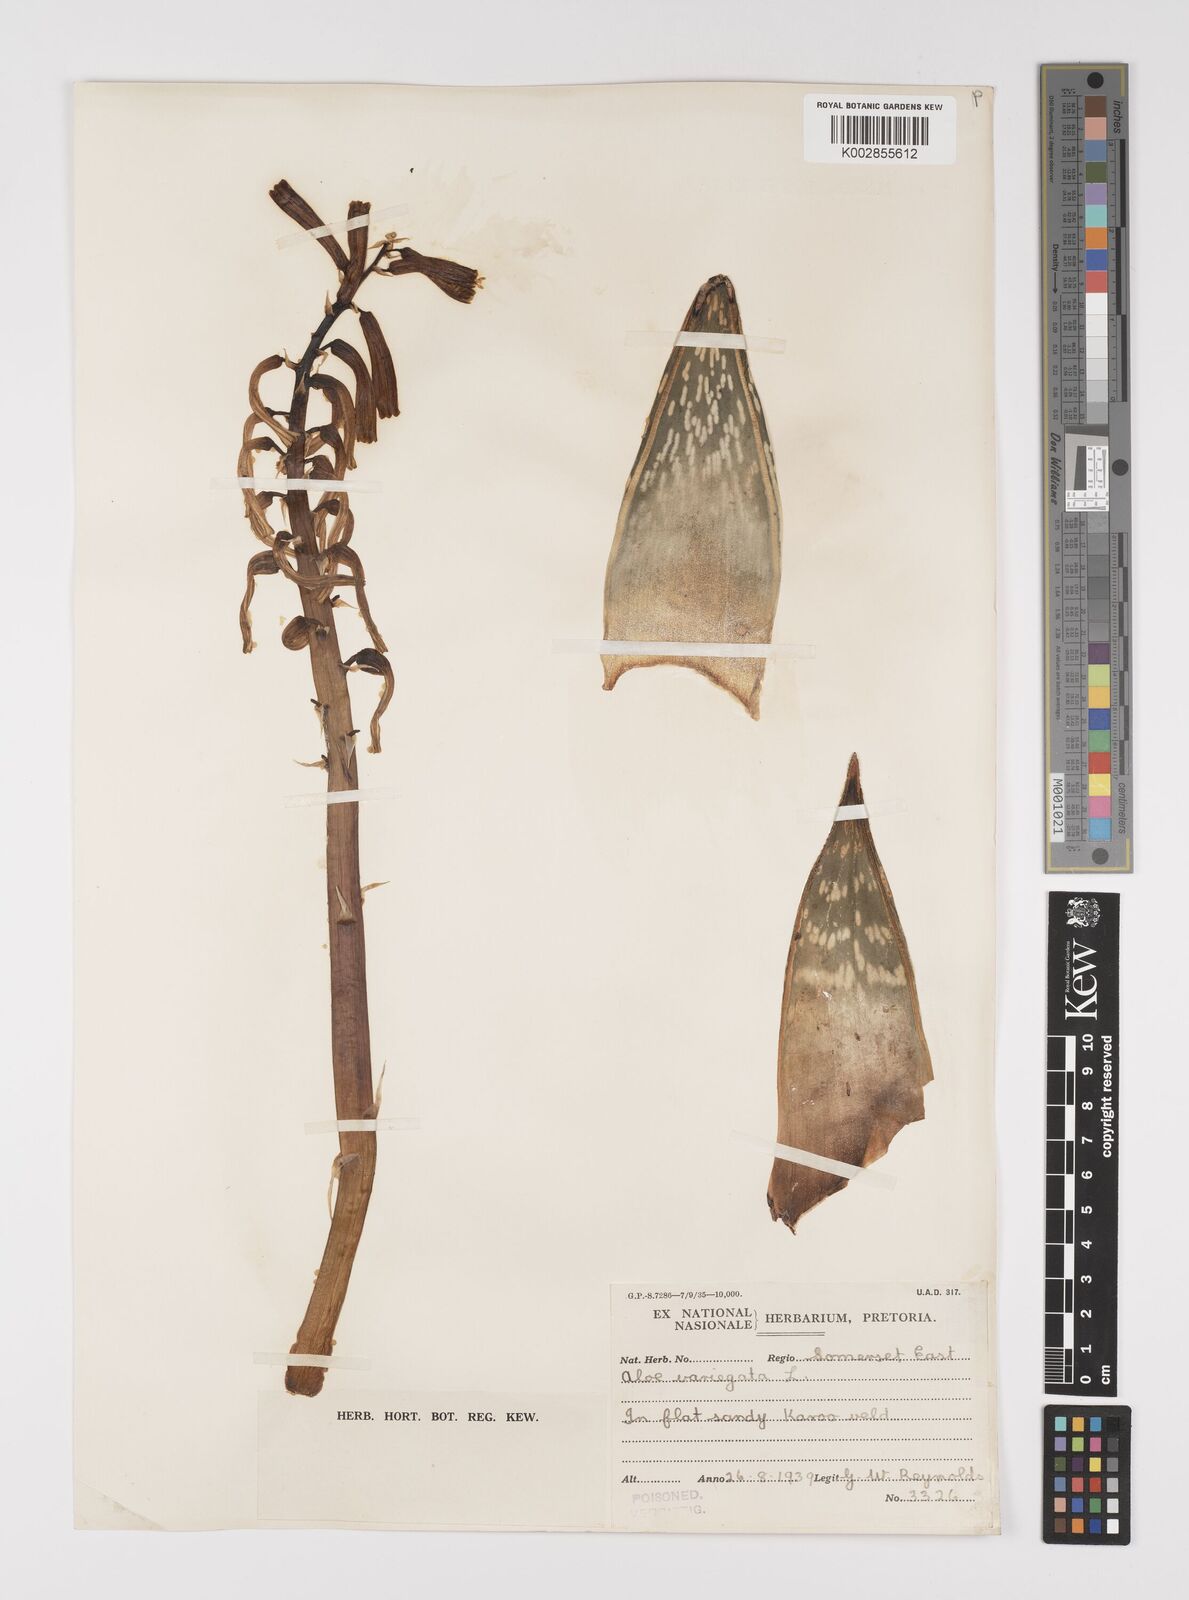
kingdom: Plantae
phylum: Tracheophyta
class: Liliopsida
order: Asparagales
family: Asphodelaceae
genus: Gonialoe
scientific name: Gonialoe variegata
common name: Aloe variegata
